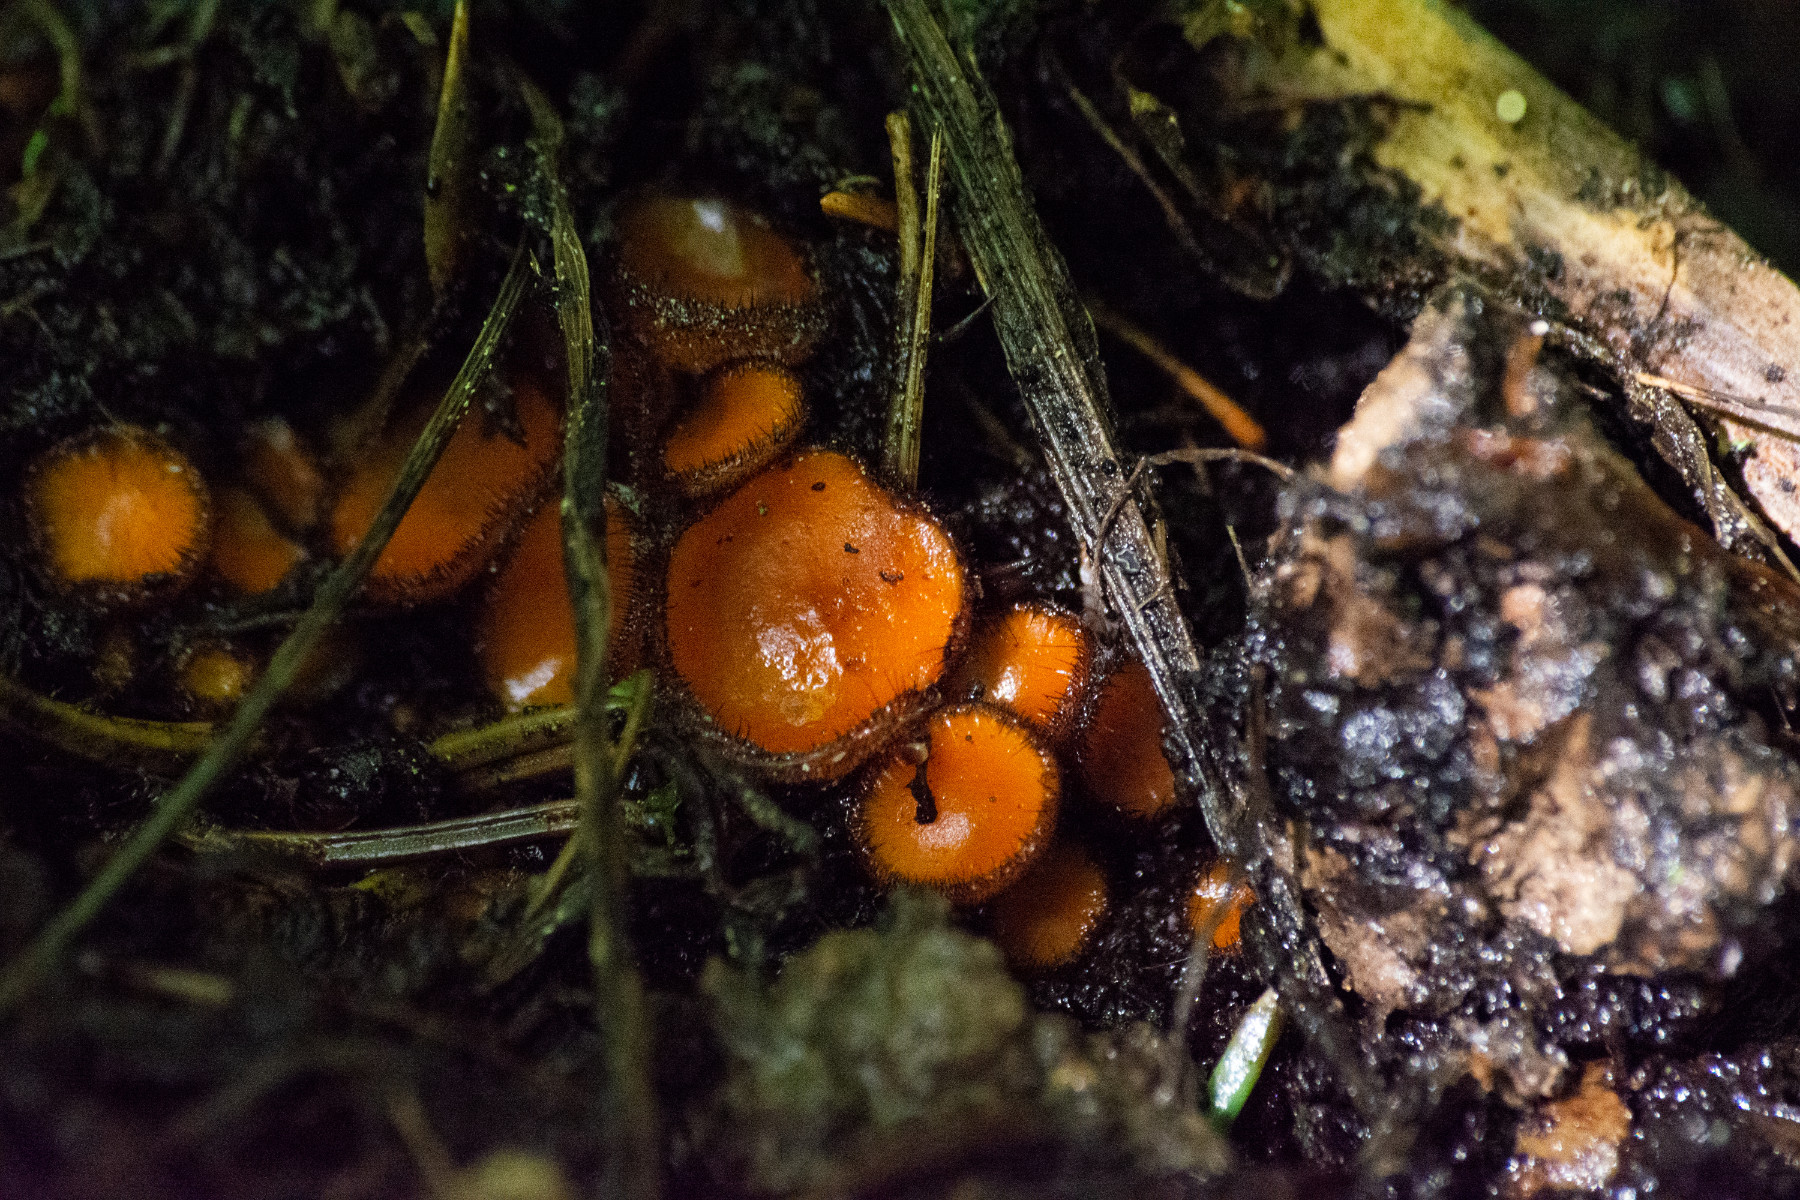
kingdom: Fungi
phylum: Ascomycota
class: Pezizomycetes
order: Pezizales
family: Pyronemataceae
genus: Scutellinia
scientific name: Scutellinia
